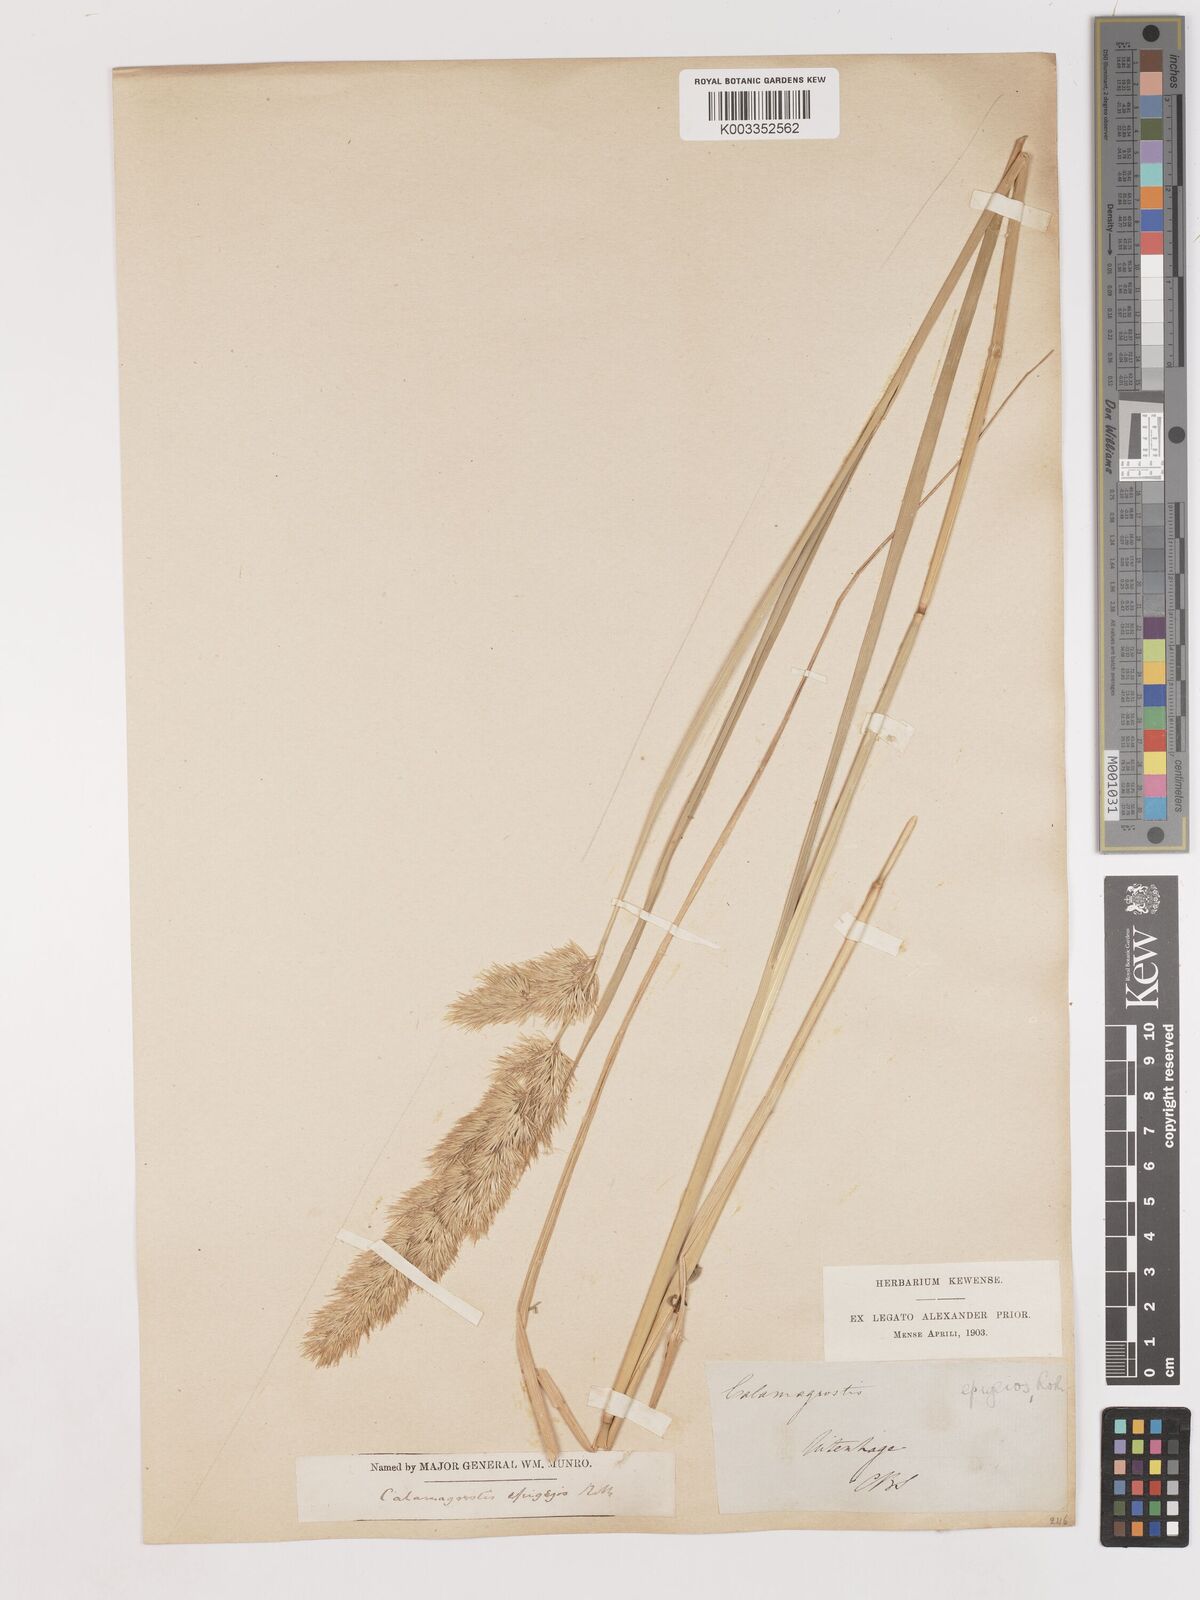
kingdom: Plantae
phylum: Tracheophyta
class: Liliopsida
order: Poales
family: Poaceae
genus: Calamagrostis
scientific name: Calamagrostis epigejos
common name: Wood small-reed
